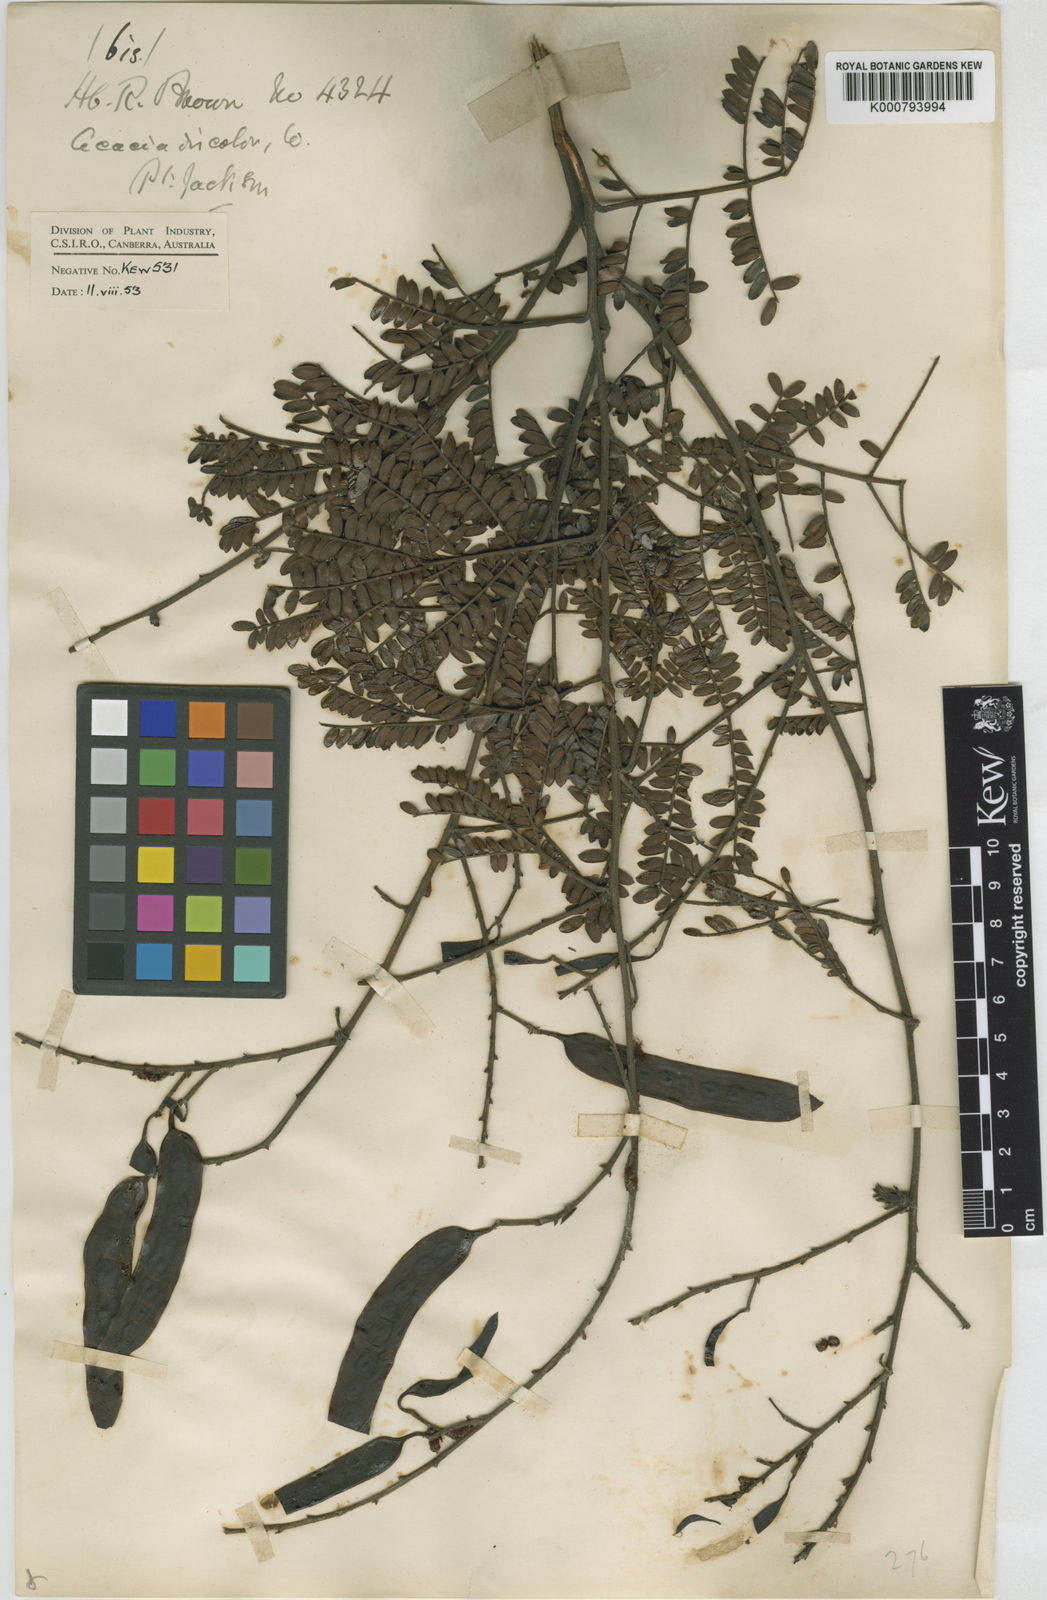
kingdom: Plantae
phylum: Tracheophyta
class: Magnoliopsida
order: Fabales
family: Fabaceae
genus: Acacia
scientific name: Acacia terminalis
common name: Cedar wattle
